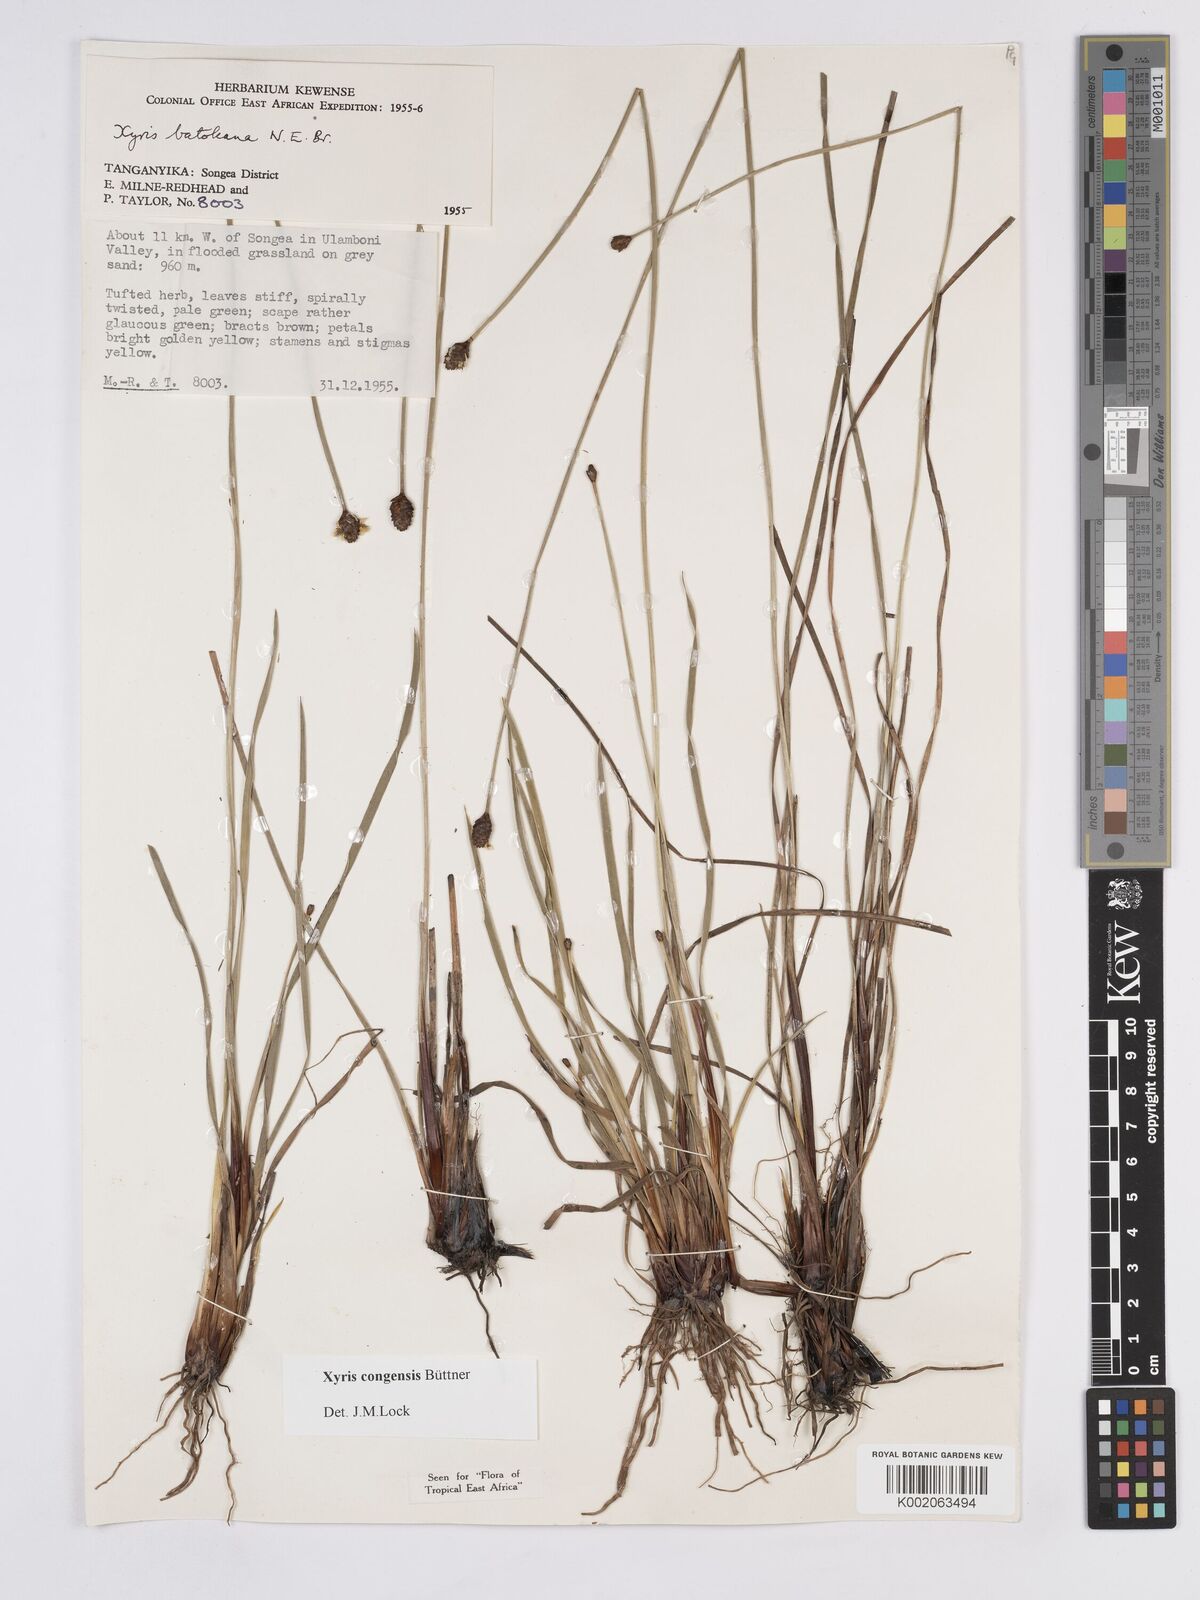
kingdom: Plantae
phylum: Tracheophyta
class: Liliopsida
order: Poales
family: Xyridaceae
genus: Xyris
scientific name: Xyris congensis
